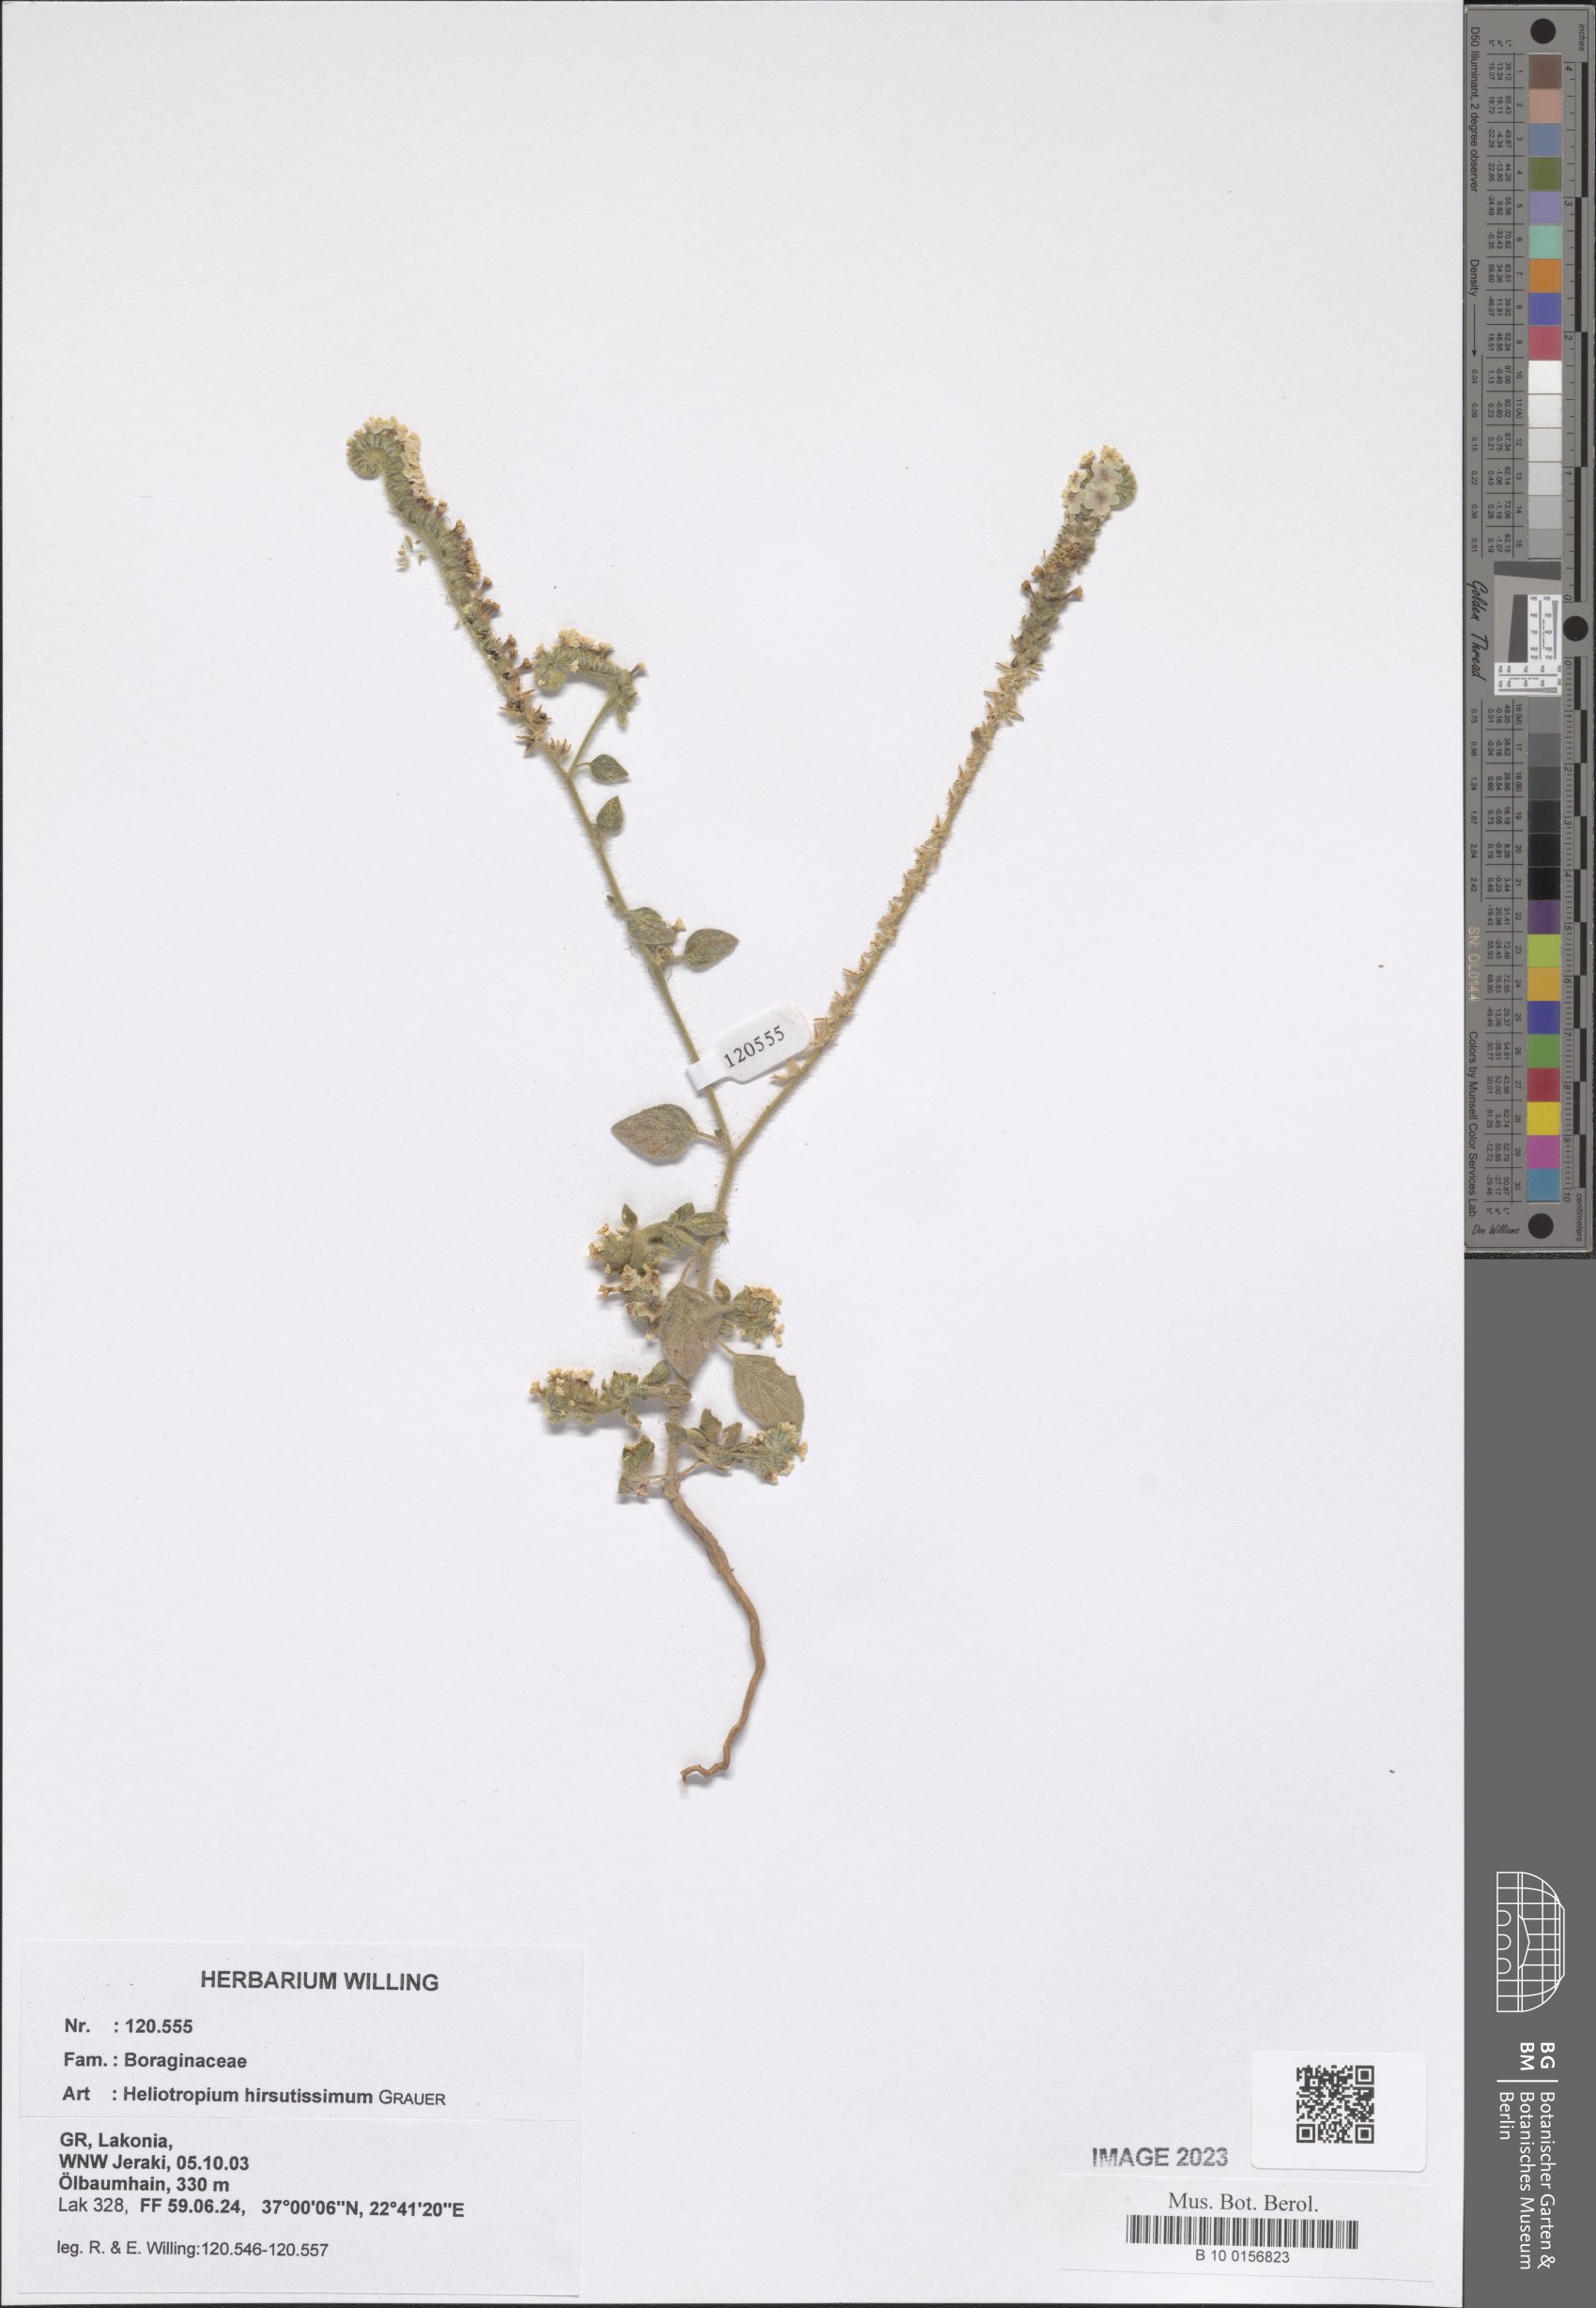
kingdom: Plantae
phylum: Tracheophyta
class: Magnoliopsida
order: Boraginales
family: Heliotropiaceae
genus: Heliotropium
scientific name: Heliotropium hirsutissimum
